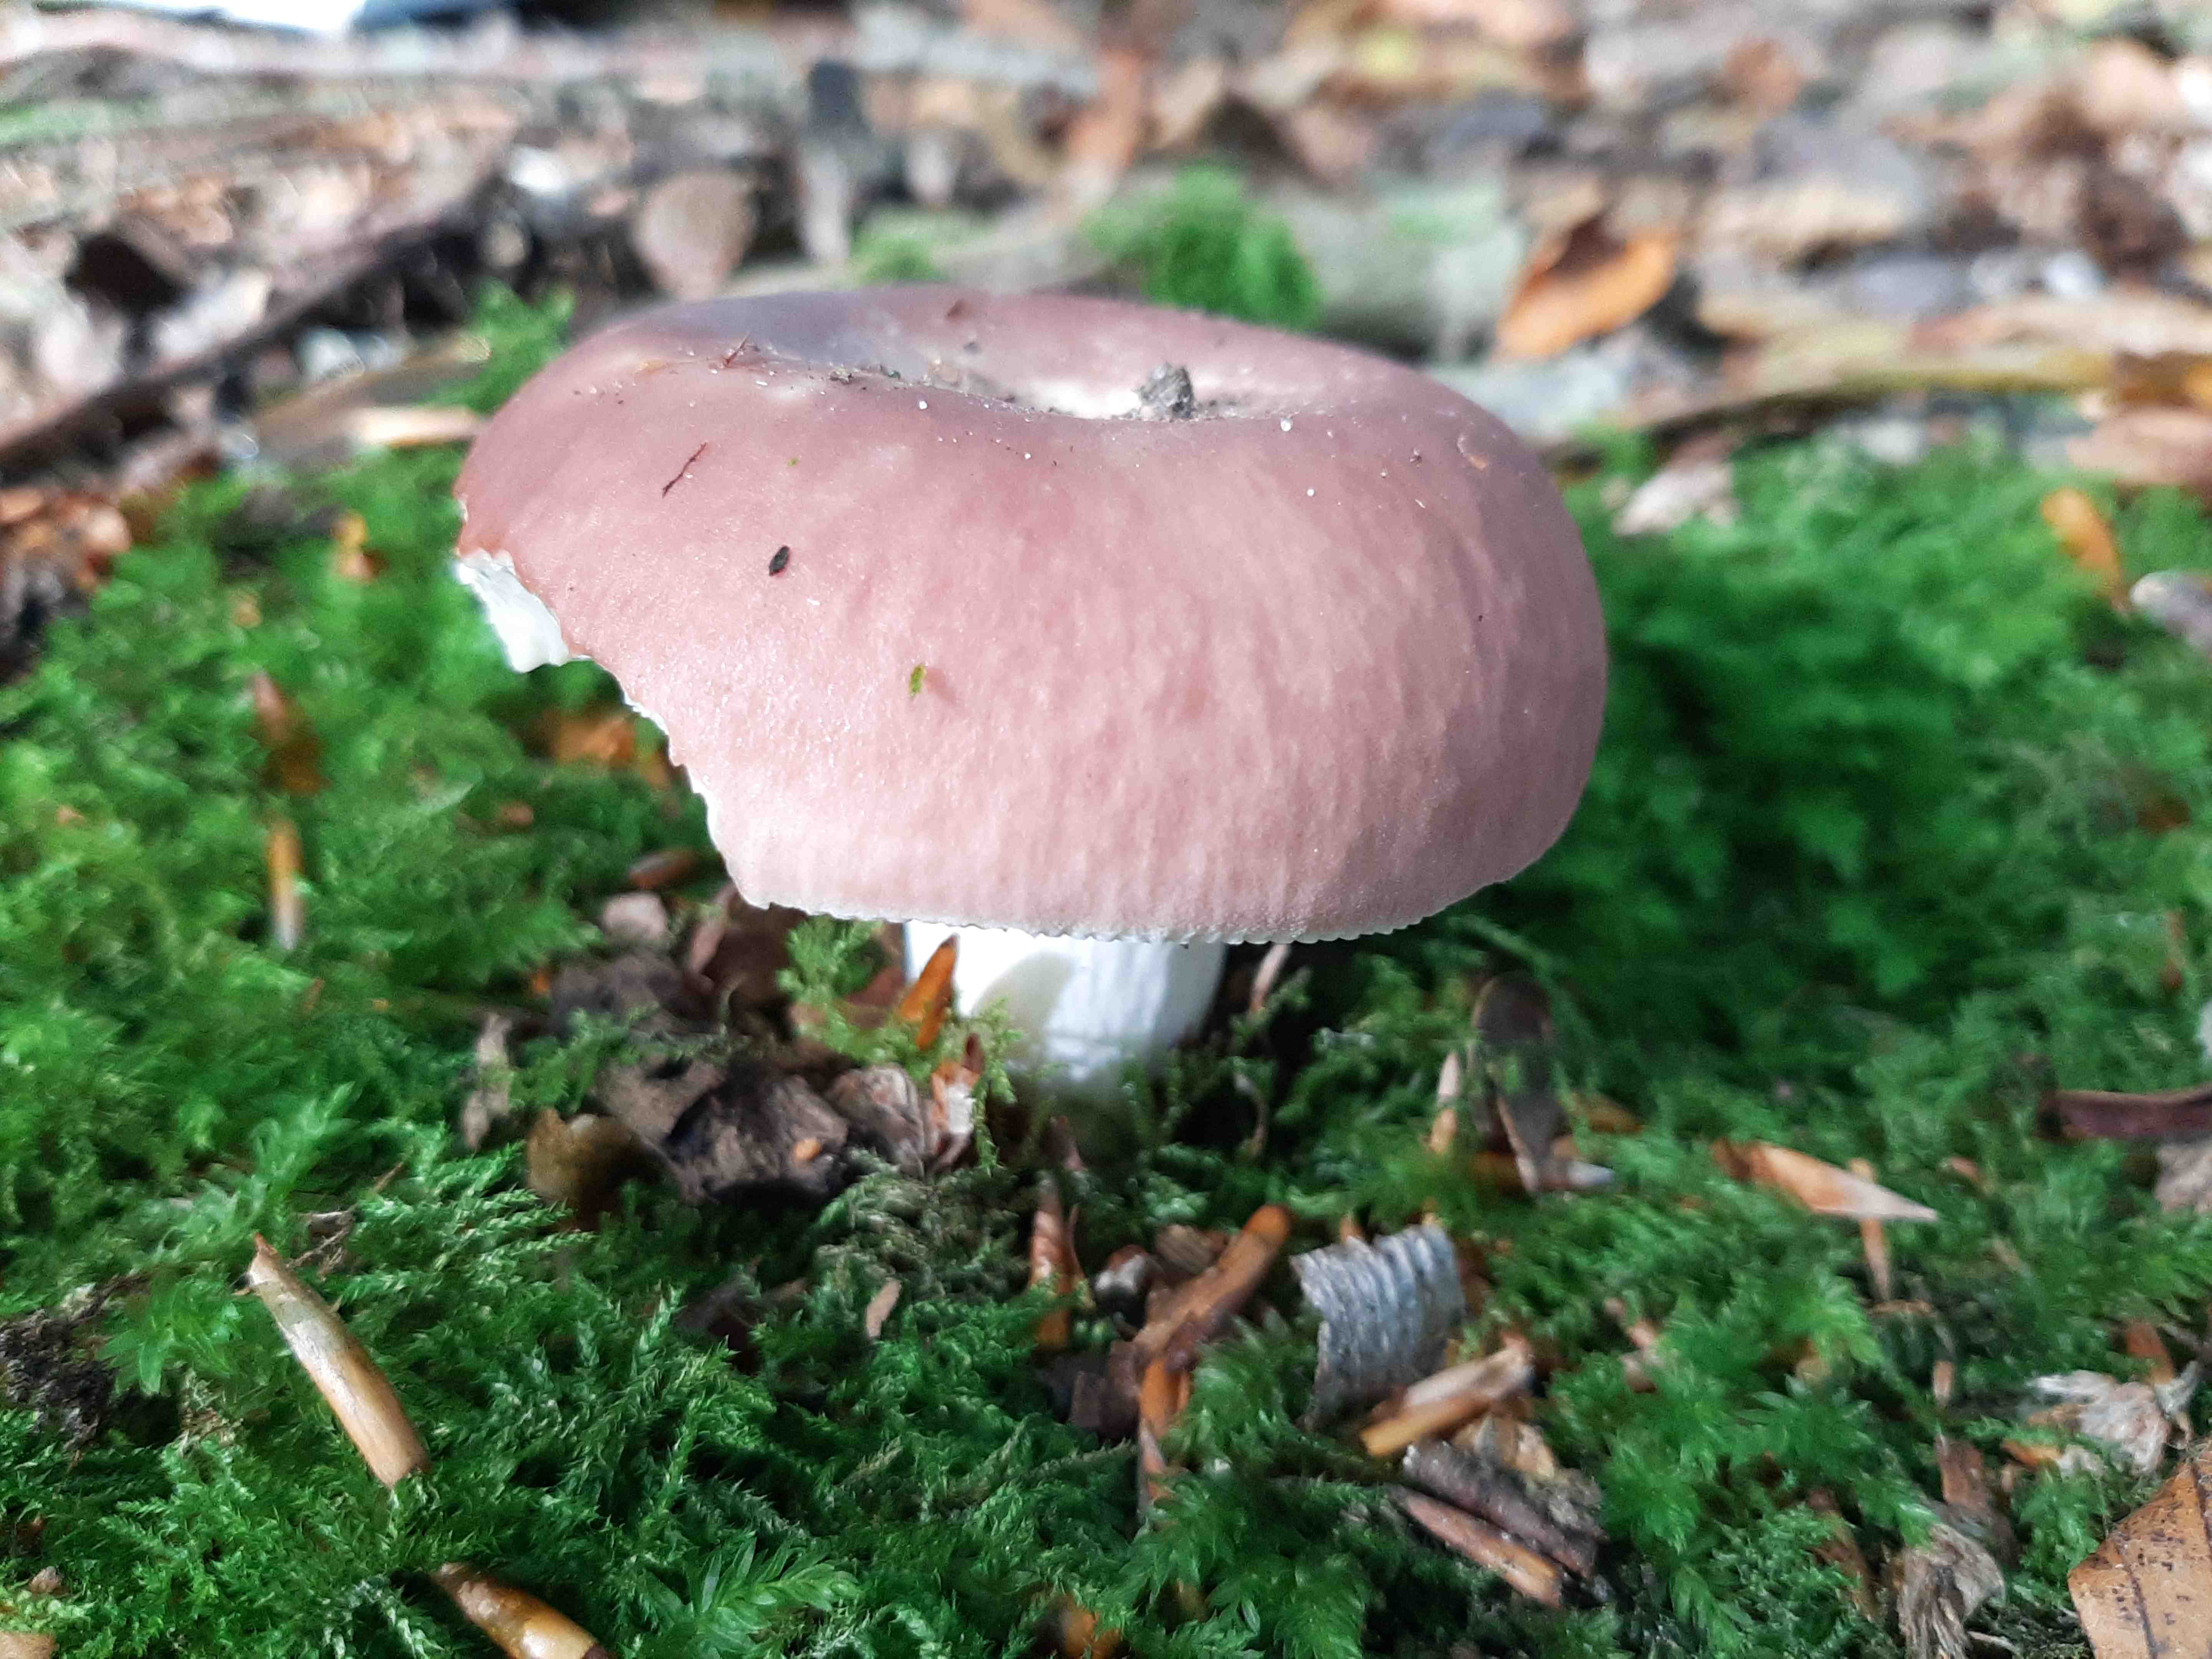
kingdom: Fungi
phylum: Basidiomycota
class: Agaricomycetes
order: Russulales
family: Russulaceae
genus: Russula
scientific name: Russula vesca
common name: spiselig skørhat
